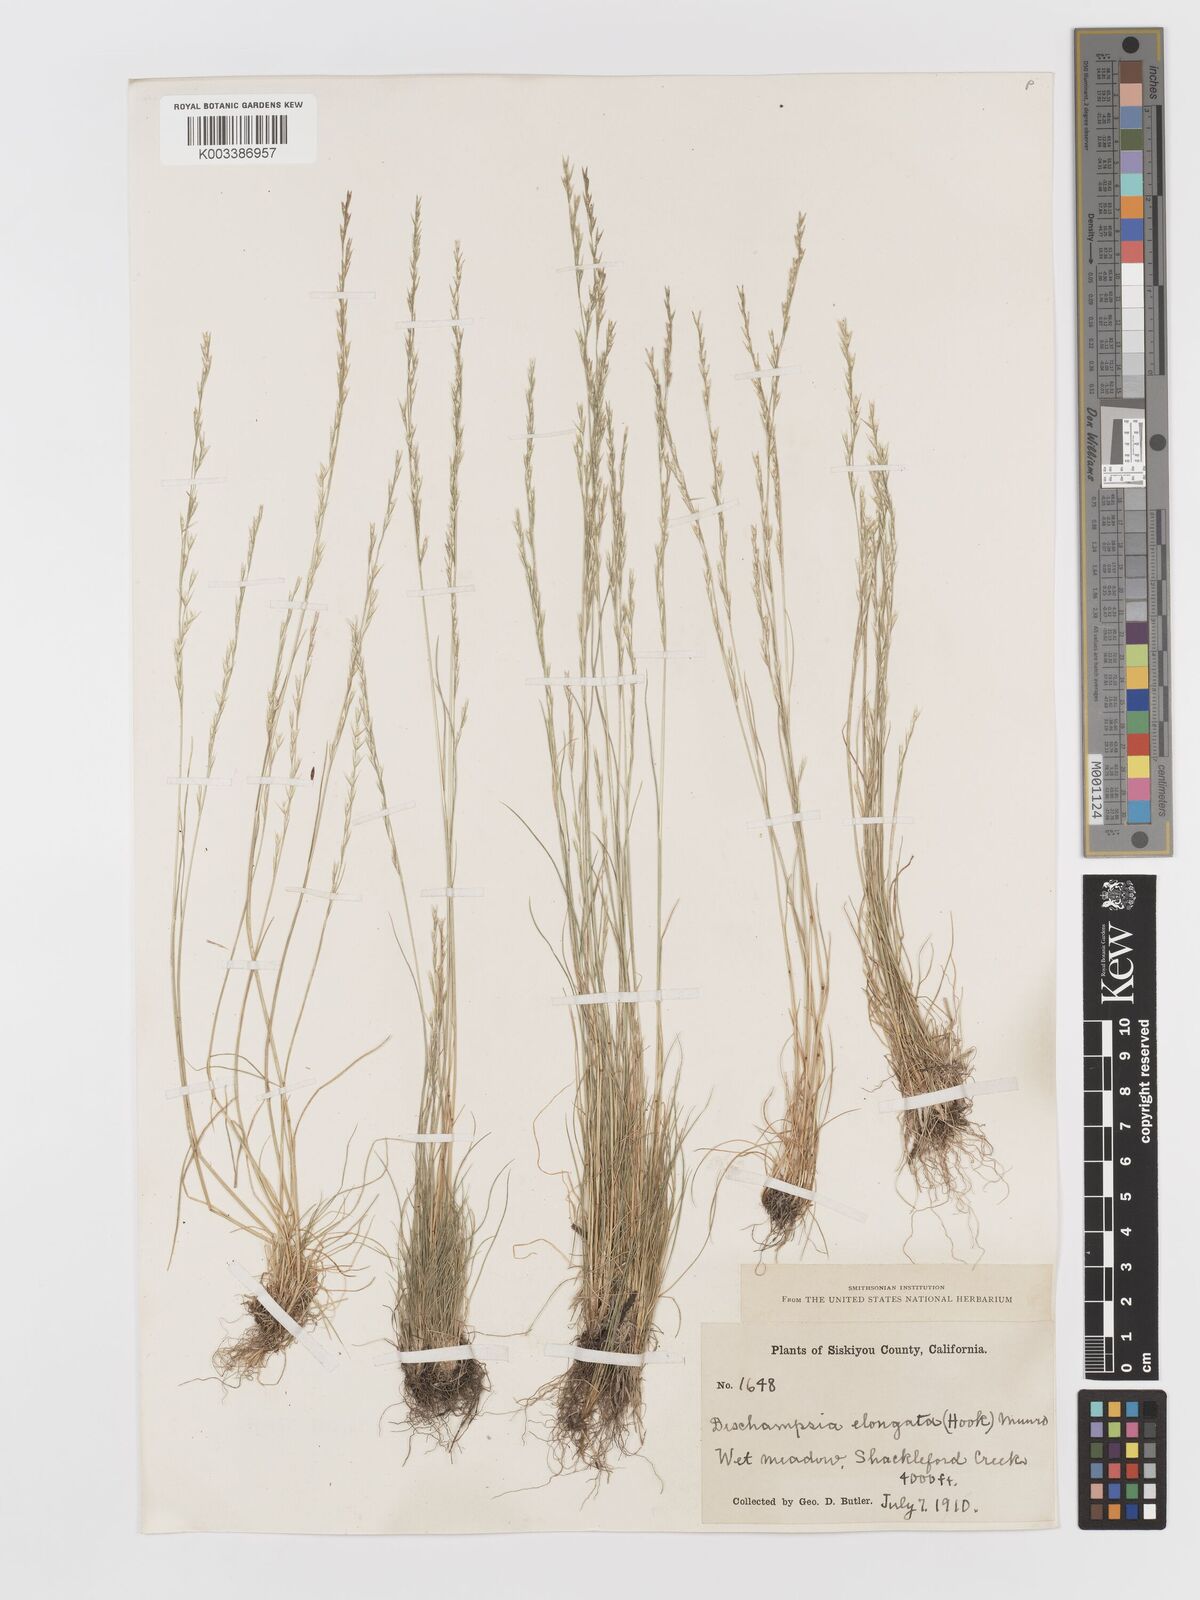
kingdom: Plantae
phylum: Tracheophyta
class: Liliopsida
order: Poales
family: Poaceae
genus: Deschampsia
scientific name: Deschampsia elongata
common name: Slender hairgrass
